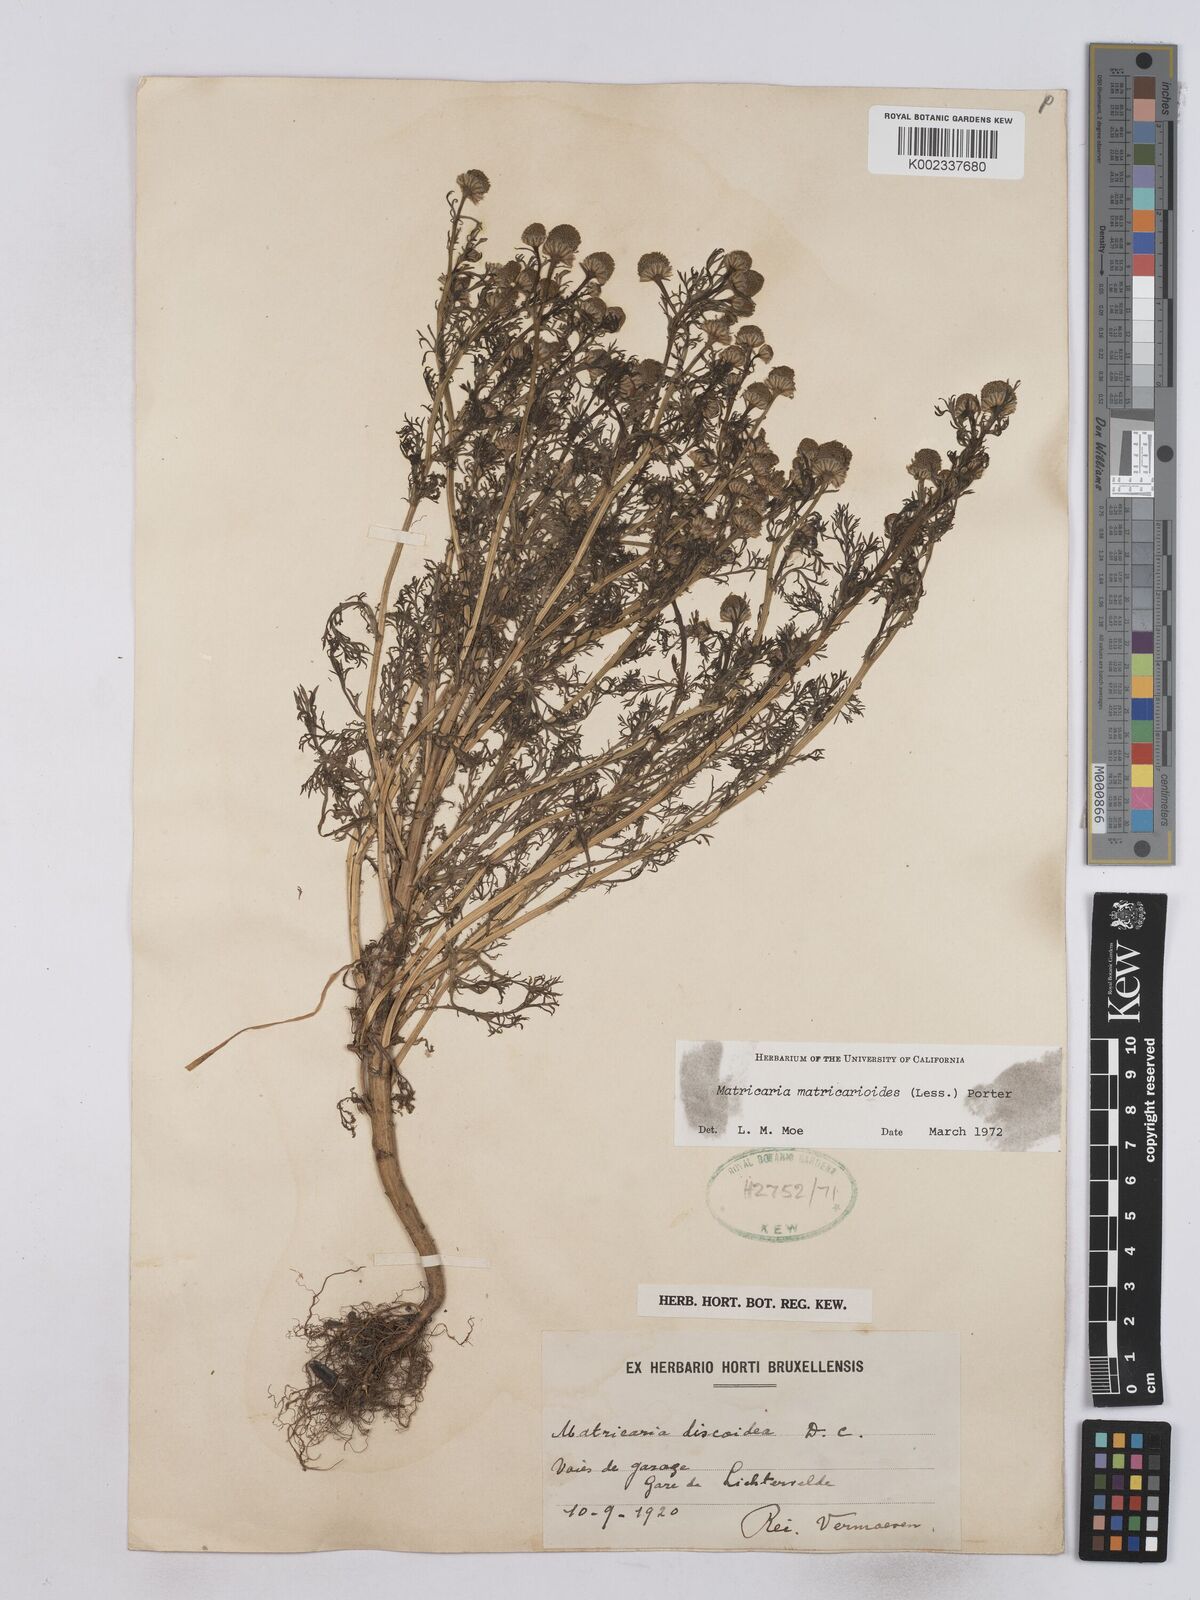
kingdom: Plantae
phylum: Tracheophyta
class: Magnoliopsida
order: Asterales
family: Asteraceae
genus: Matricaria
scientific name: Matricaria discoidea
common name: Disc mayweed
